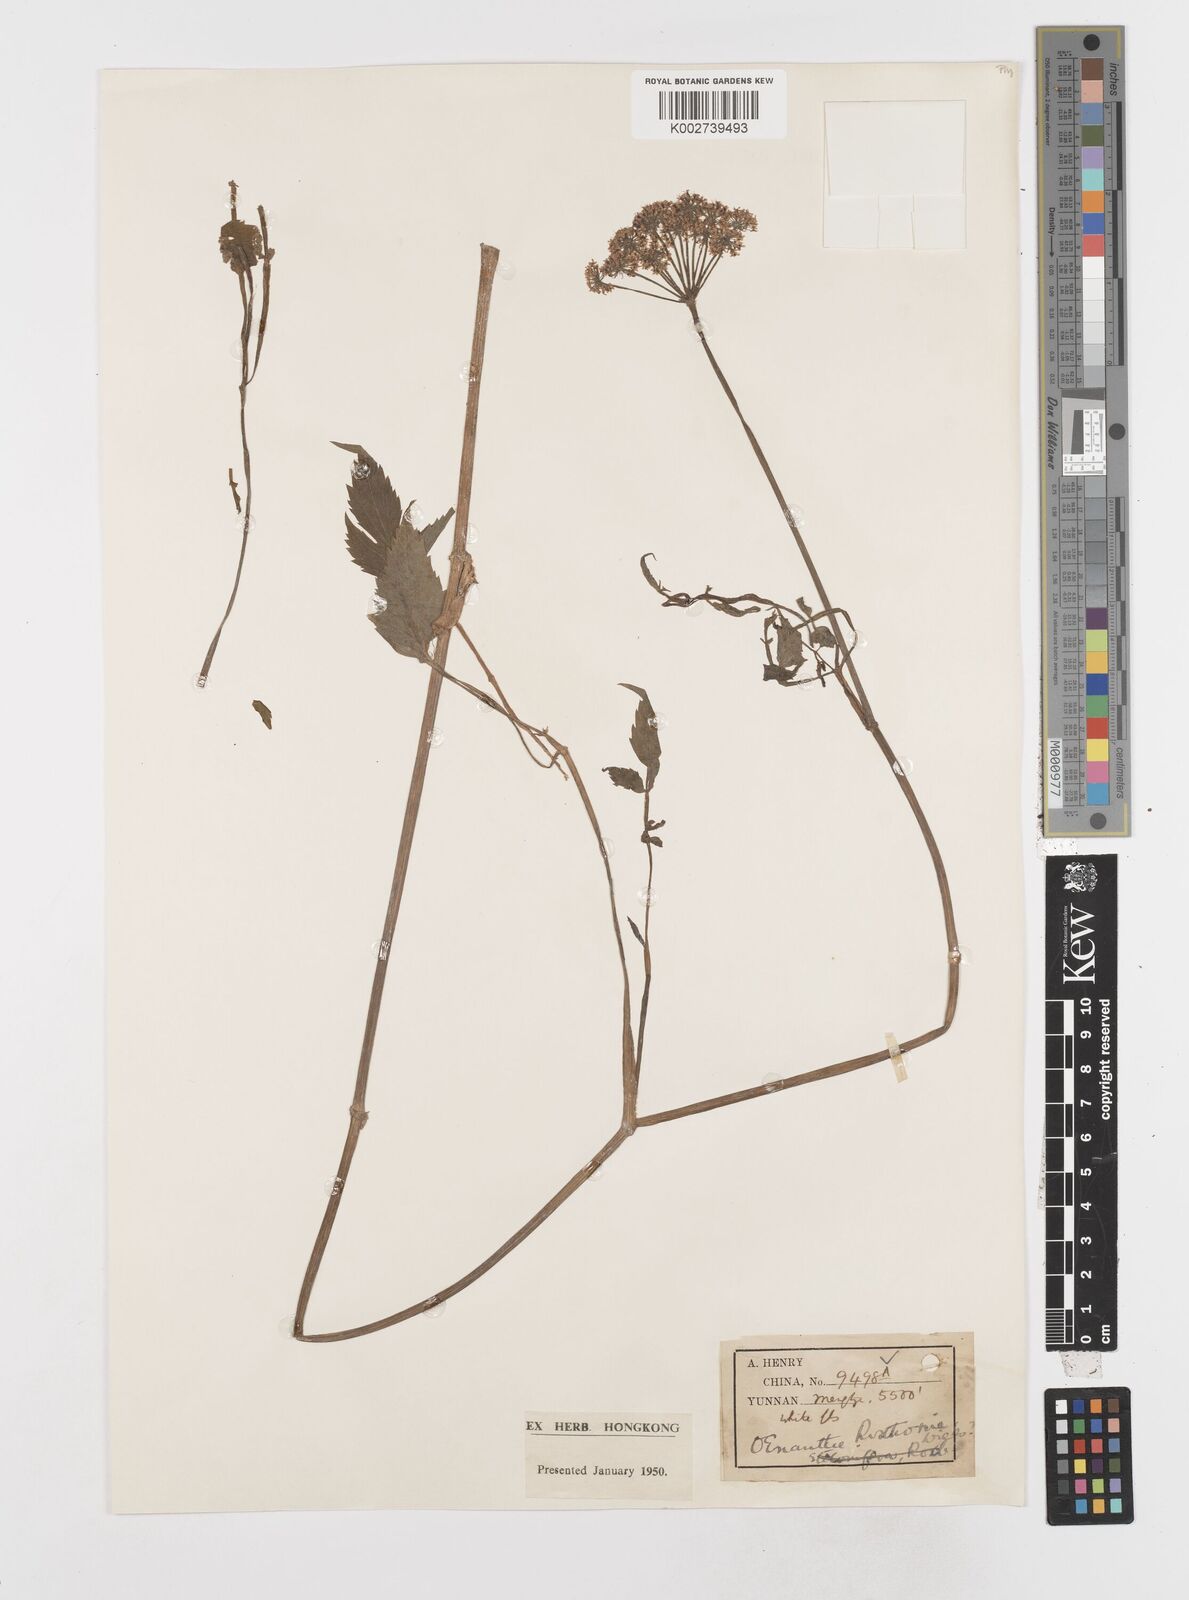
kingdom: Plantae
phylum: Tracheophyta
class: Magnoliopsida
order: Apiales
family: Apiaceae
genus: Oenanthe
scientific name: Oenanthe javanica
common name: Java water-dropwort
